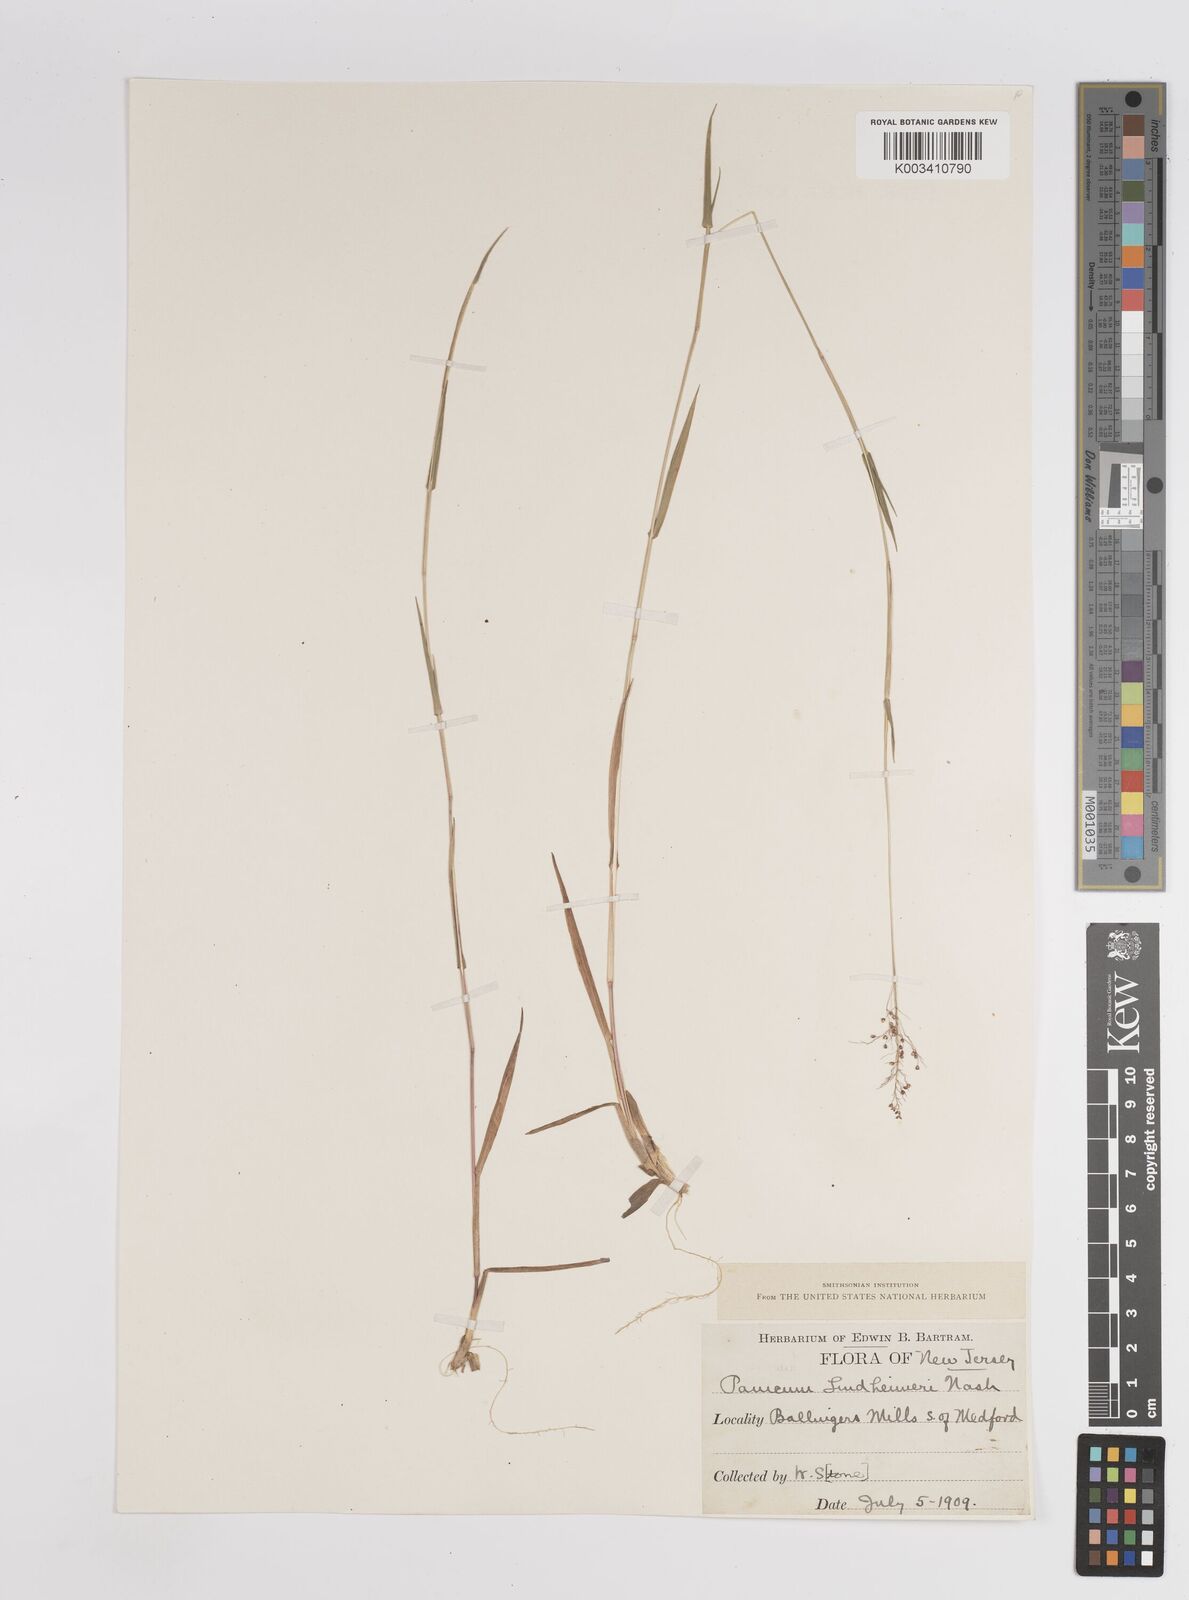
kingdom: Plantae
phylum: Tracheophyta
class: Liliopsida
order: Poales
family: Poaceae
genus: Dichanthelium
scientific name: Dichanthelium acuminatum
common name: Hairy panic grass
